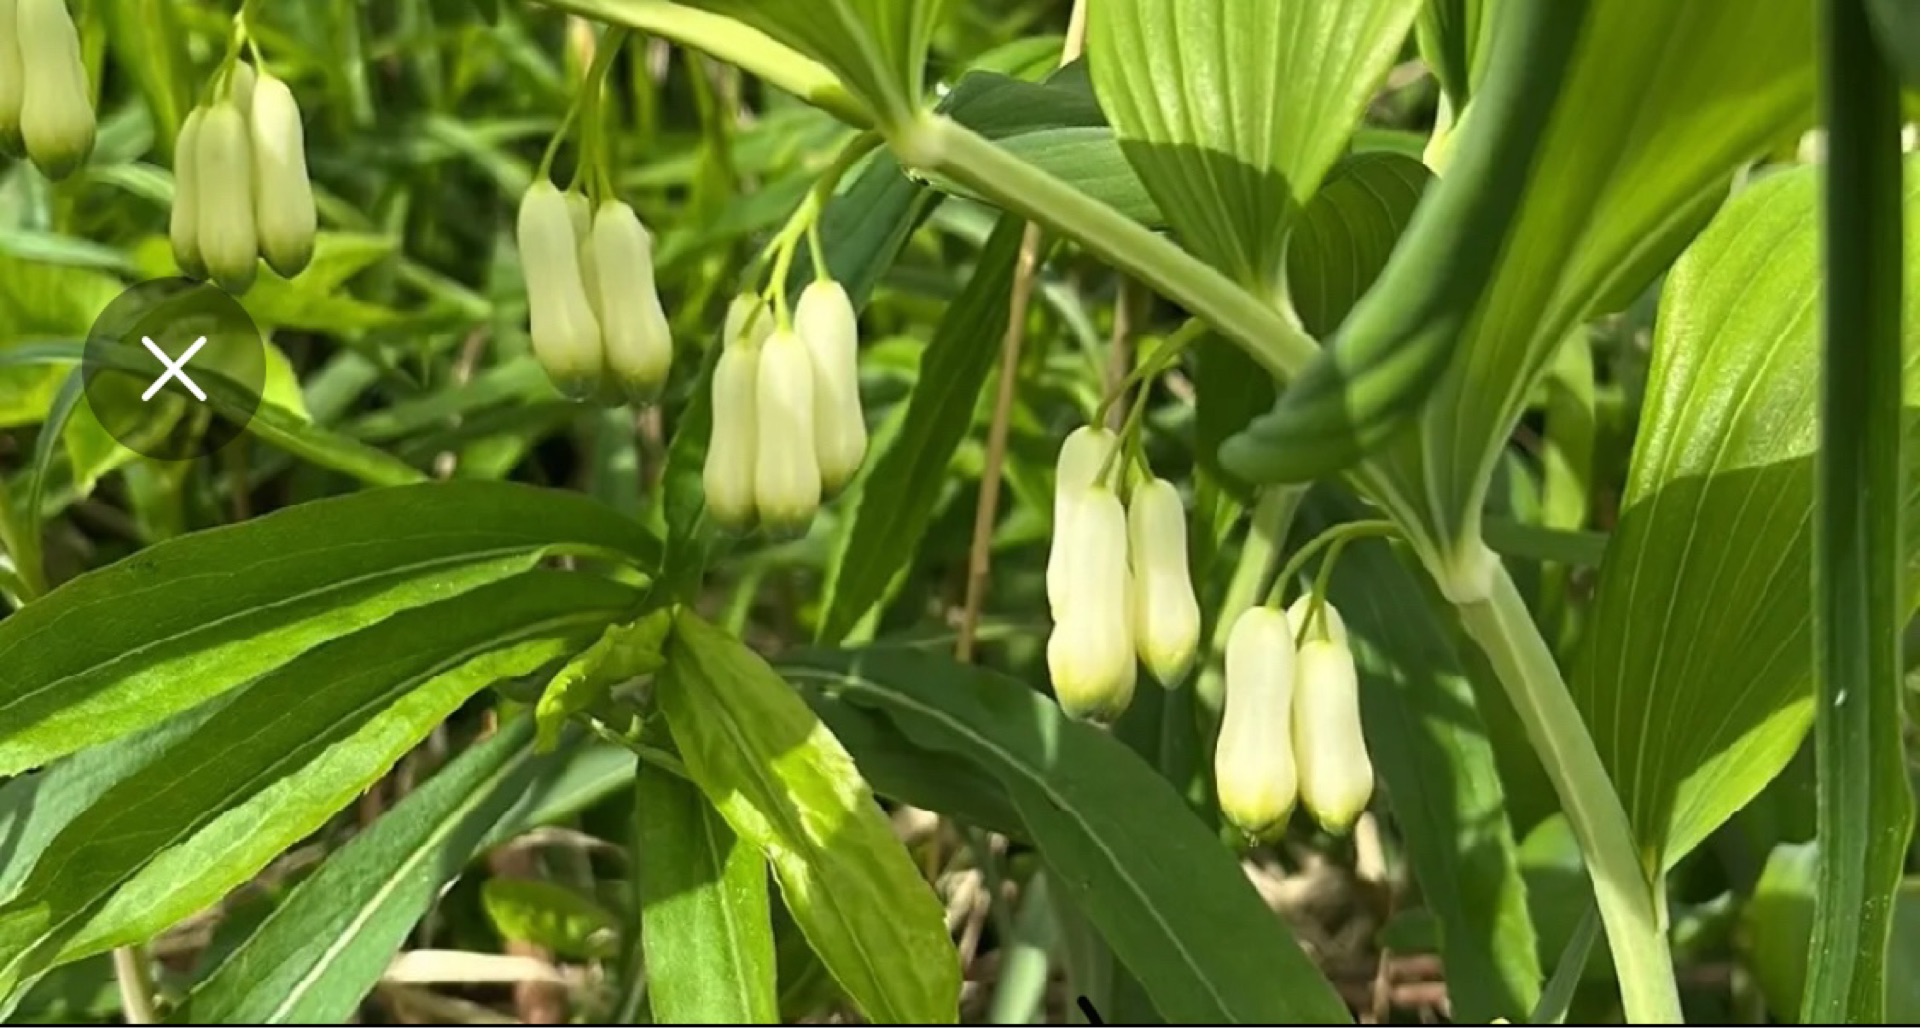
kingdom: Plantae
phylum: Tracheophyta
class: Liliopsida
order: Asparagales
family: Asparagaceae
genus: Polygonatum
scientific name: Polygonatum
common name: Hybrid-konval
